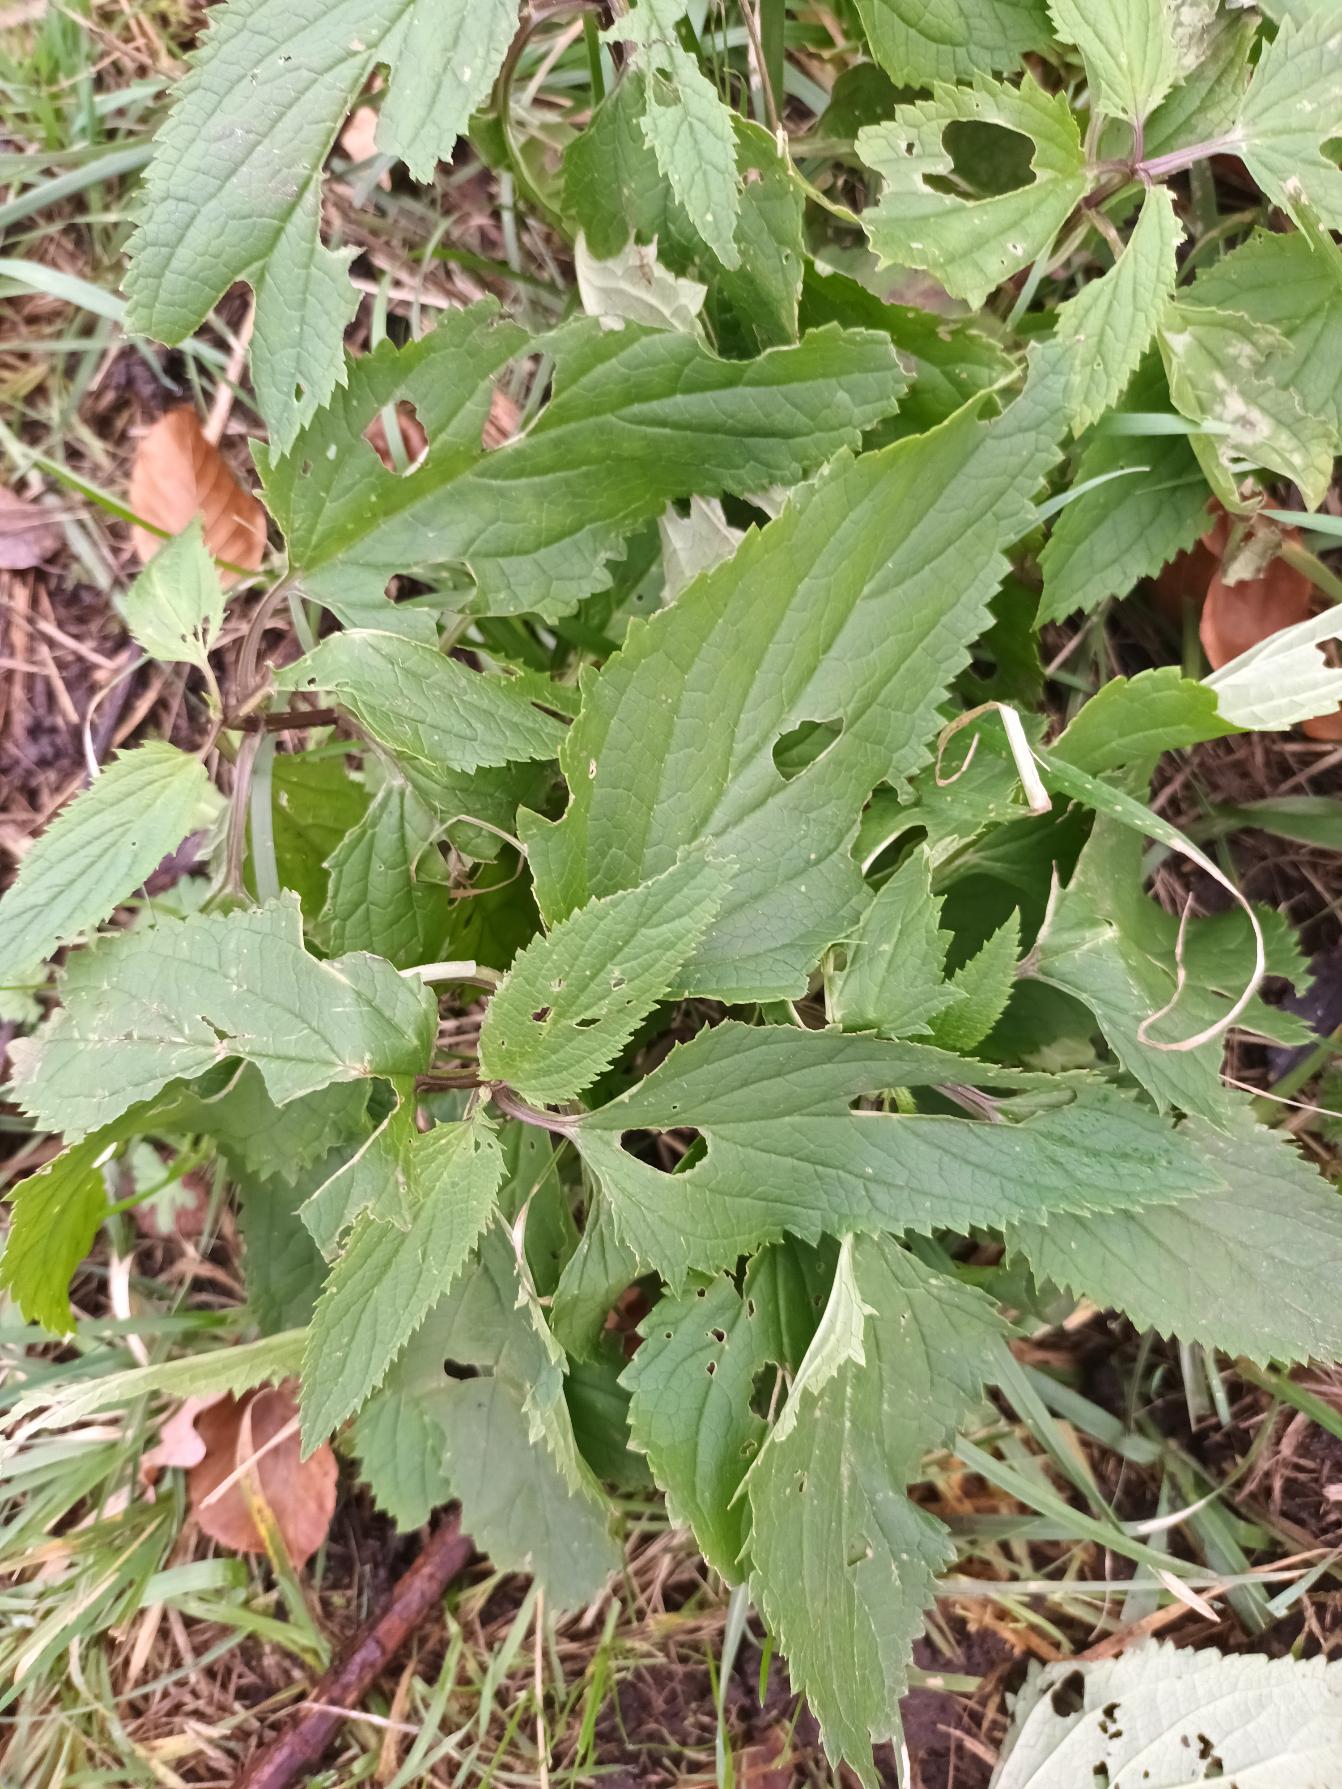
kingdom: Plantae
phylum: Tracheophyta
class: Magnoliopsida
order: Lamiales
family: Scrophulariaceae
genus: Scrophularia
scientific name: Scrophularia nodosa
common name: Knoldet brunrod
